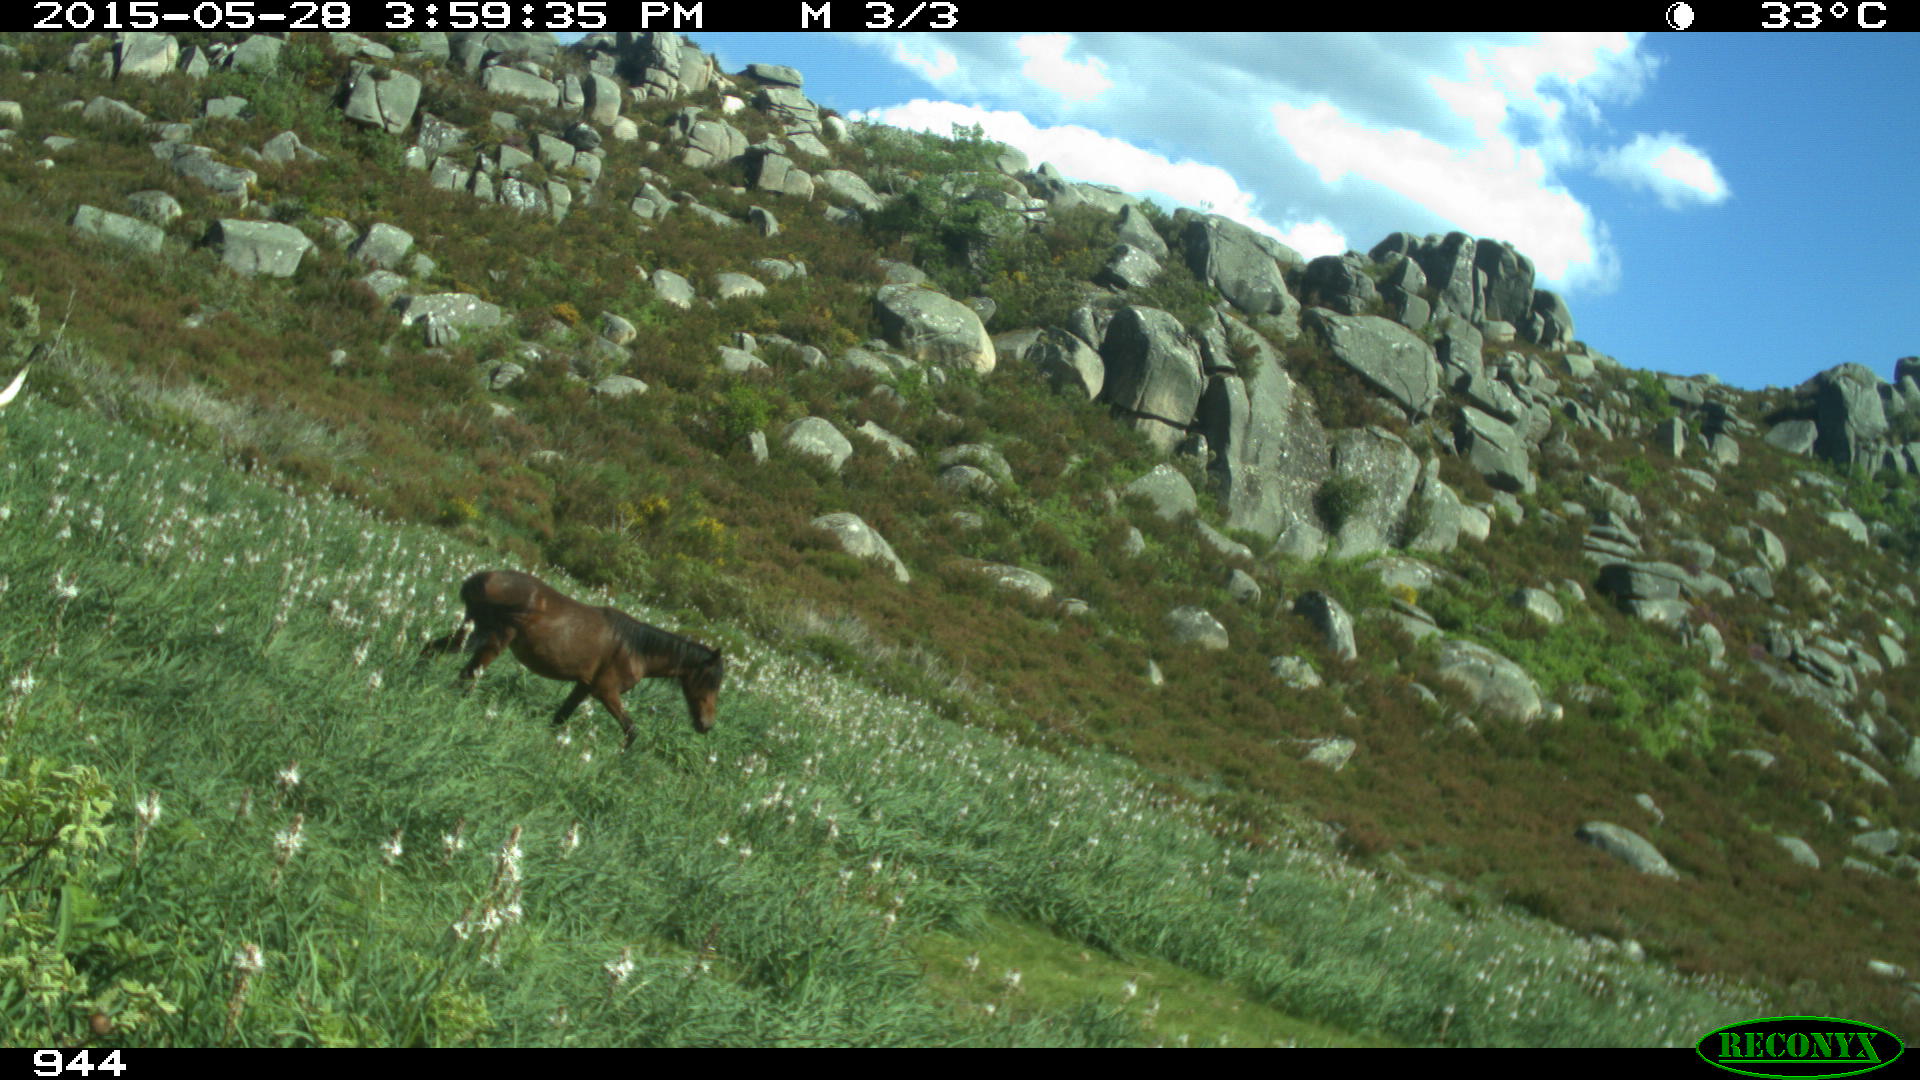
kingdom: Animalia
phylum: Chordata
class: Mammalia
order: Perissodactyla
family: Equidae
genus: Equus
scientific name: Equus caballus
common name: Horse
